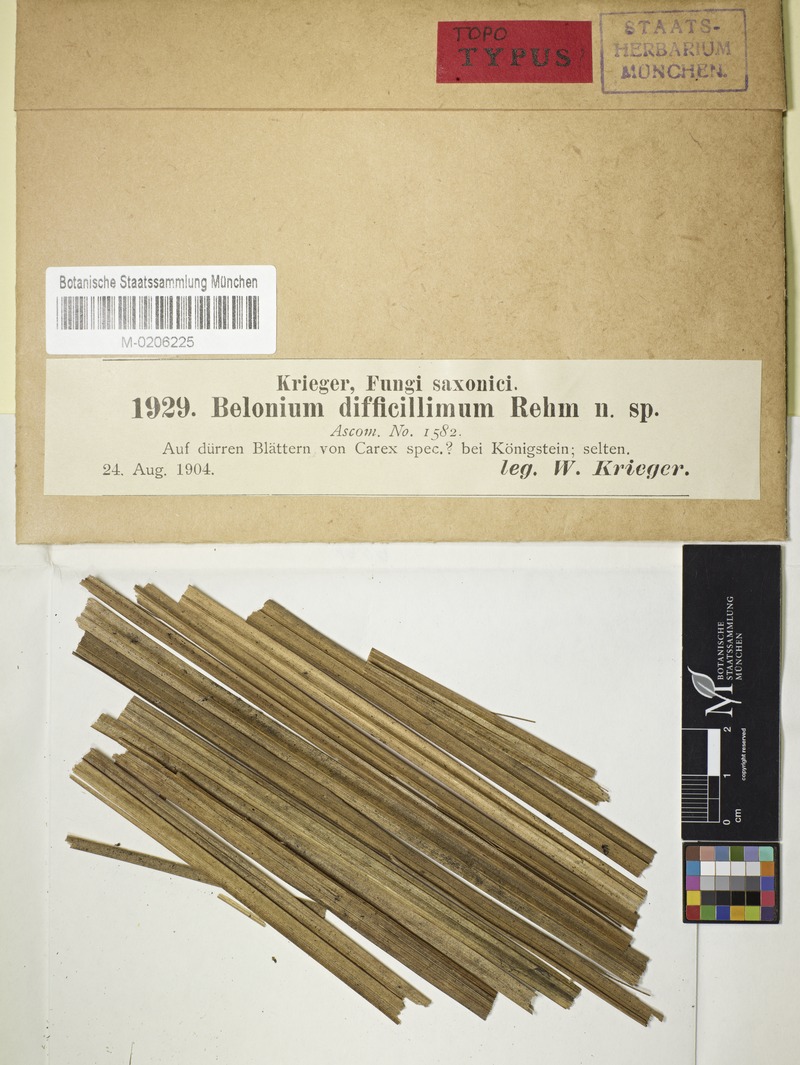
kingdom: Fungi
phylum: Ascomycota
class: Leotiomycetes
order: Helotiales
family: Lachnaceae
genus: Belonidium
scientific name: Belonidium difficillimum
